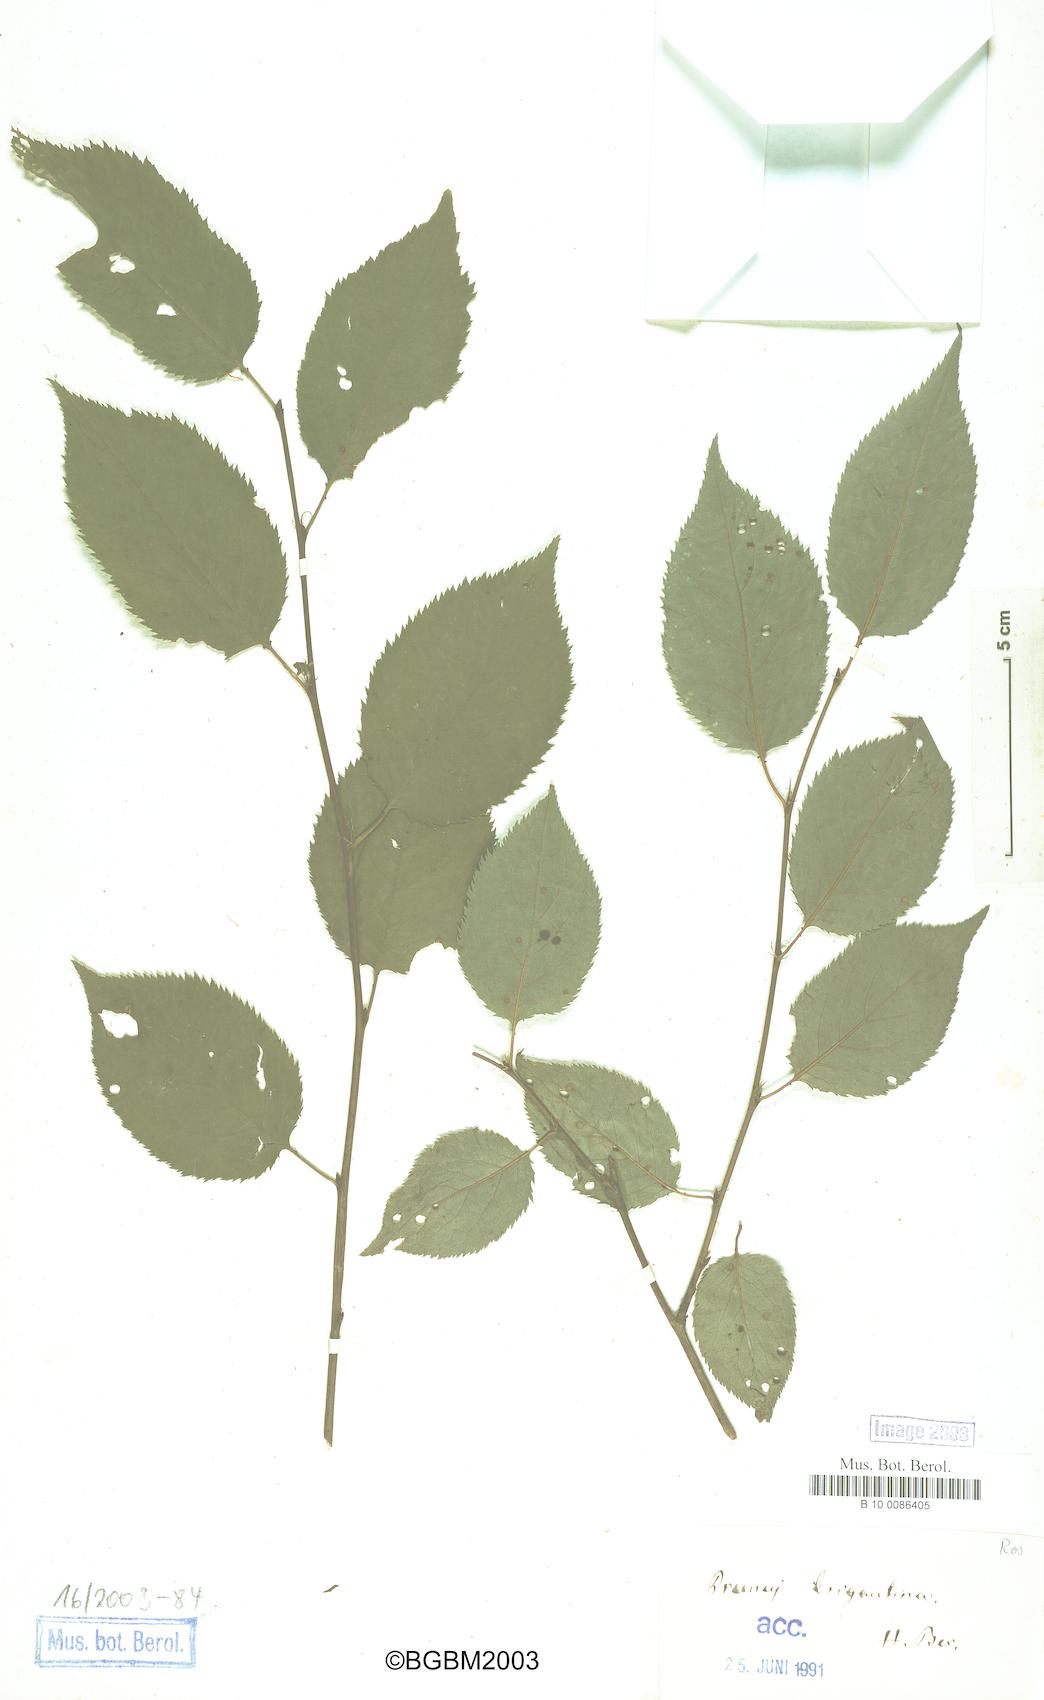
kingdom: Plantae
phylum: Tracheophyta
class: Magnoliopsida
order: Rosales
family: Rosaceae
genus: Prunus
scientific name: Prunus brigantina
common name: Briançon apricot
